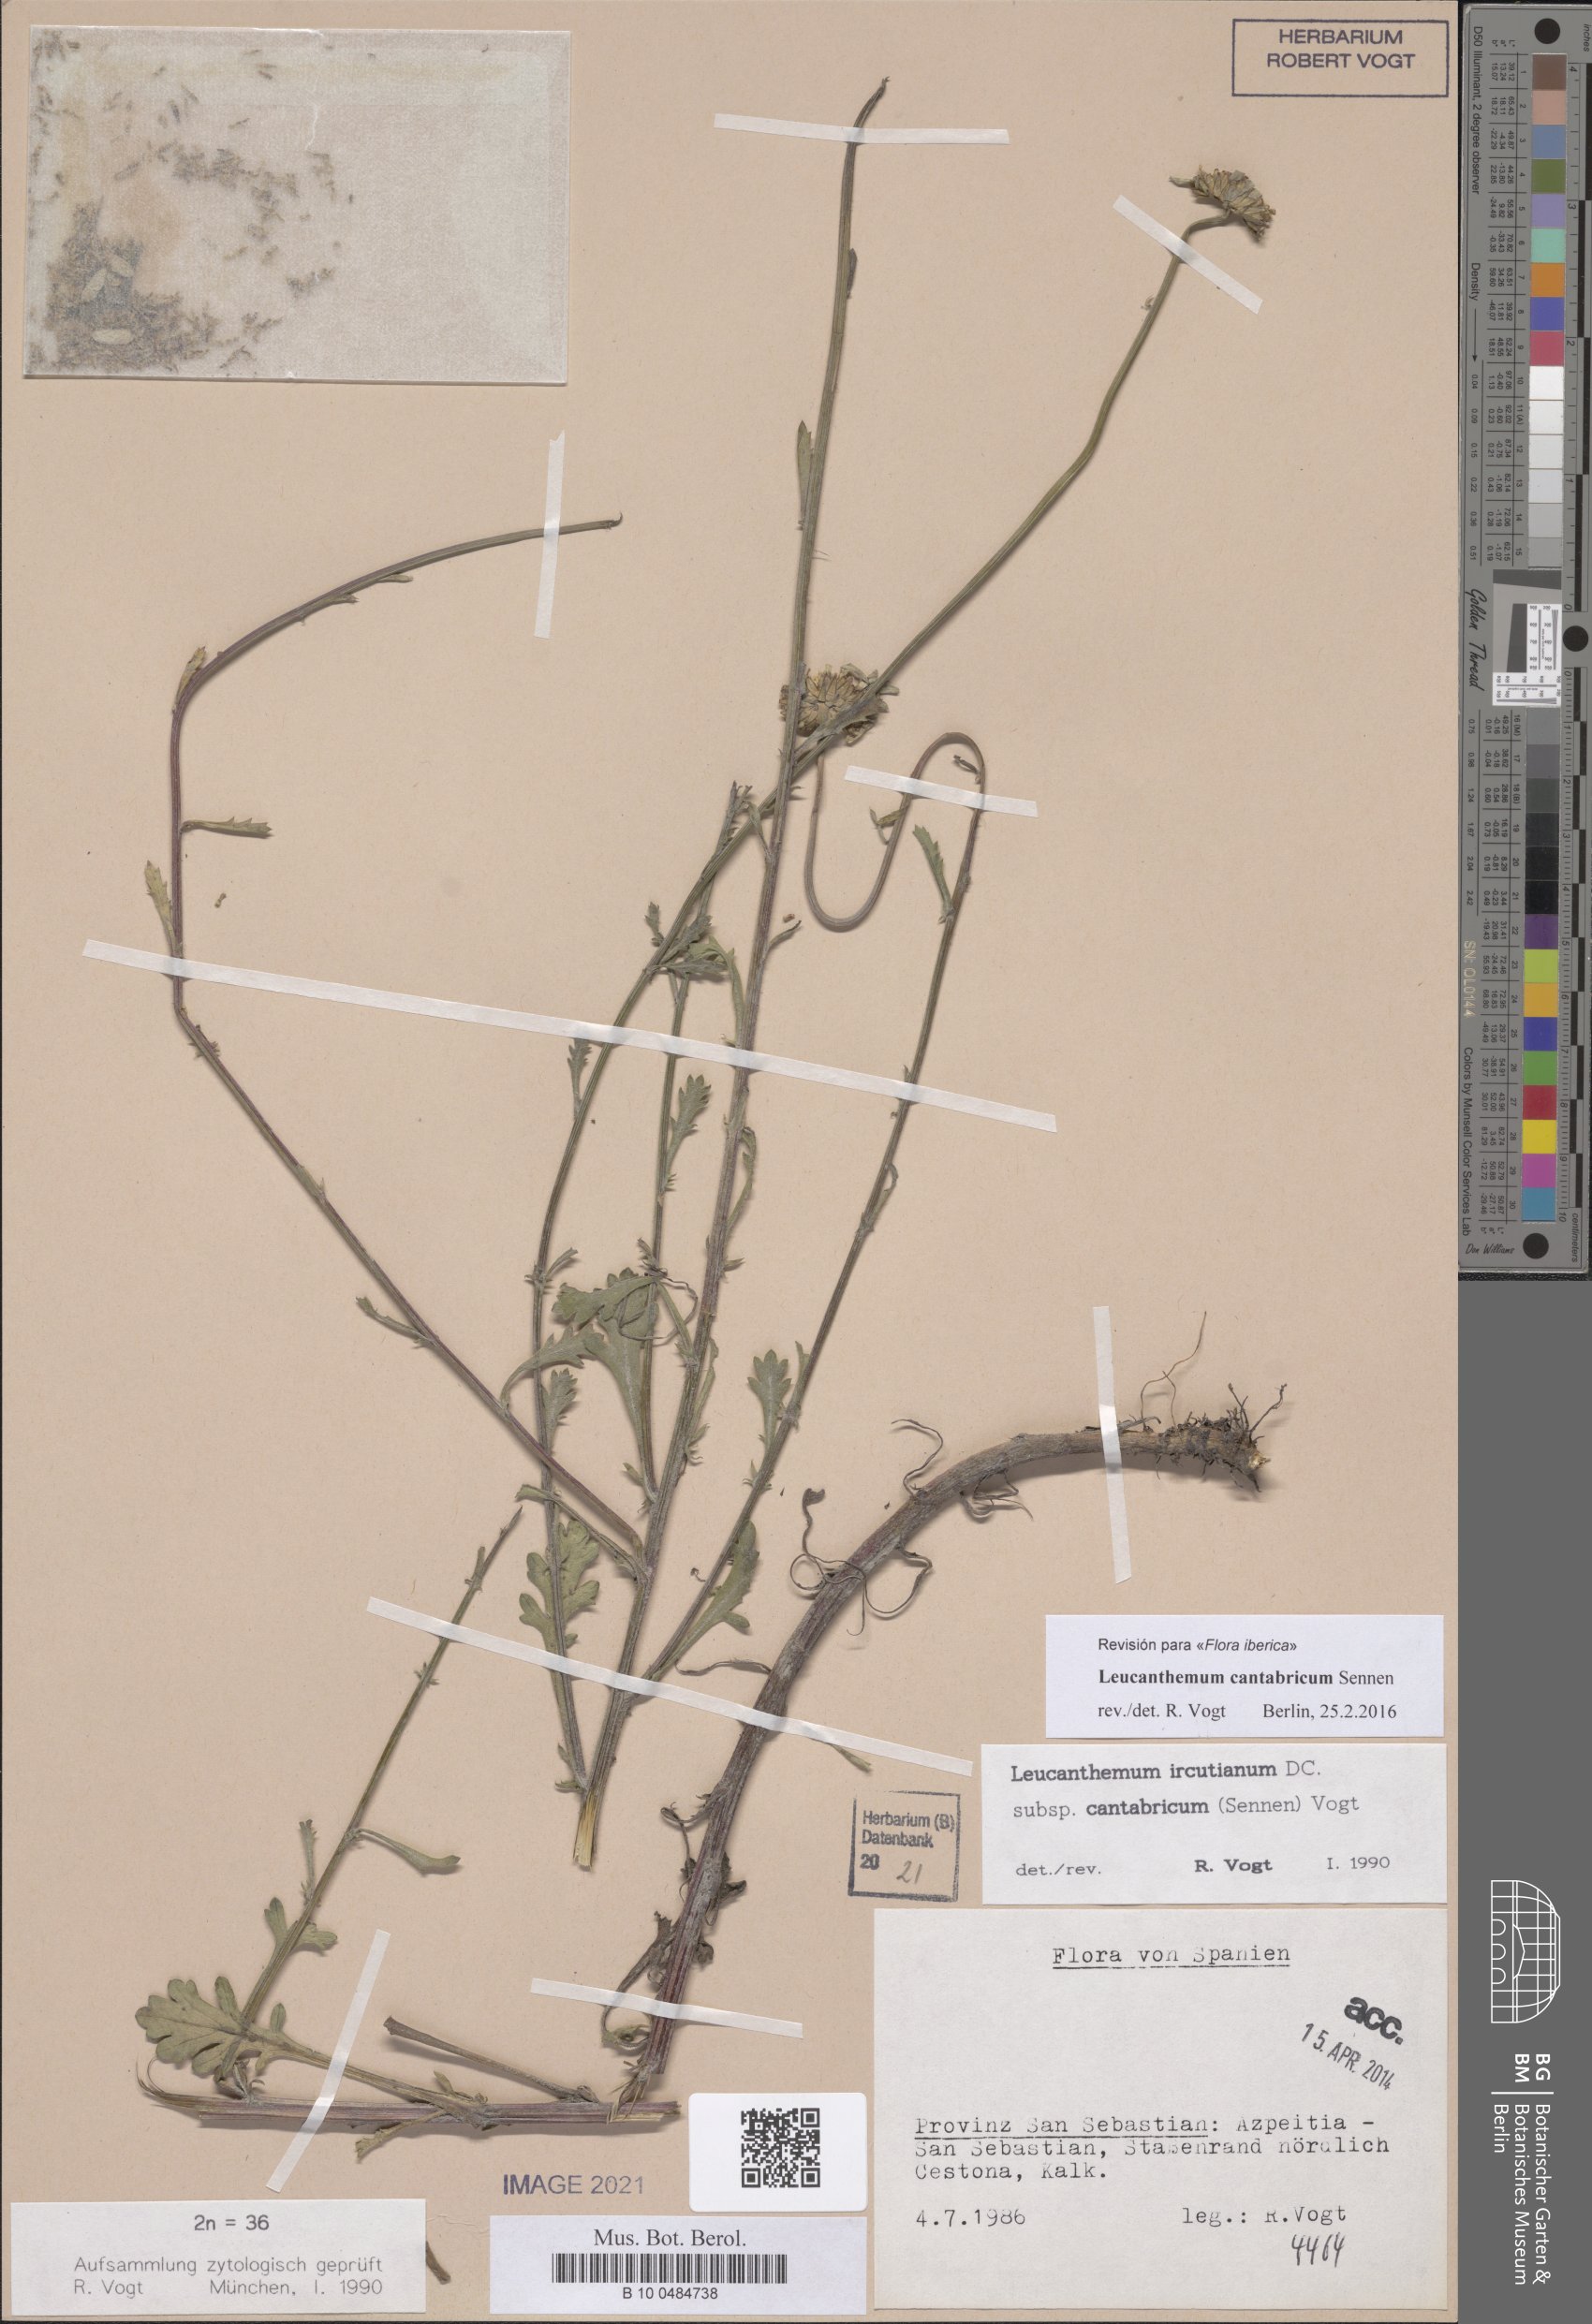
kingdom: Plantae
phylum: Tracheophyta
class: Magnoliopsida
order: Asterales
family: Asteraceae
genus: Leucanthemum
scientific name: Leucanthemum cantabricum
